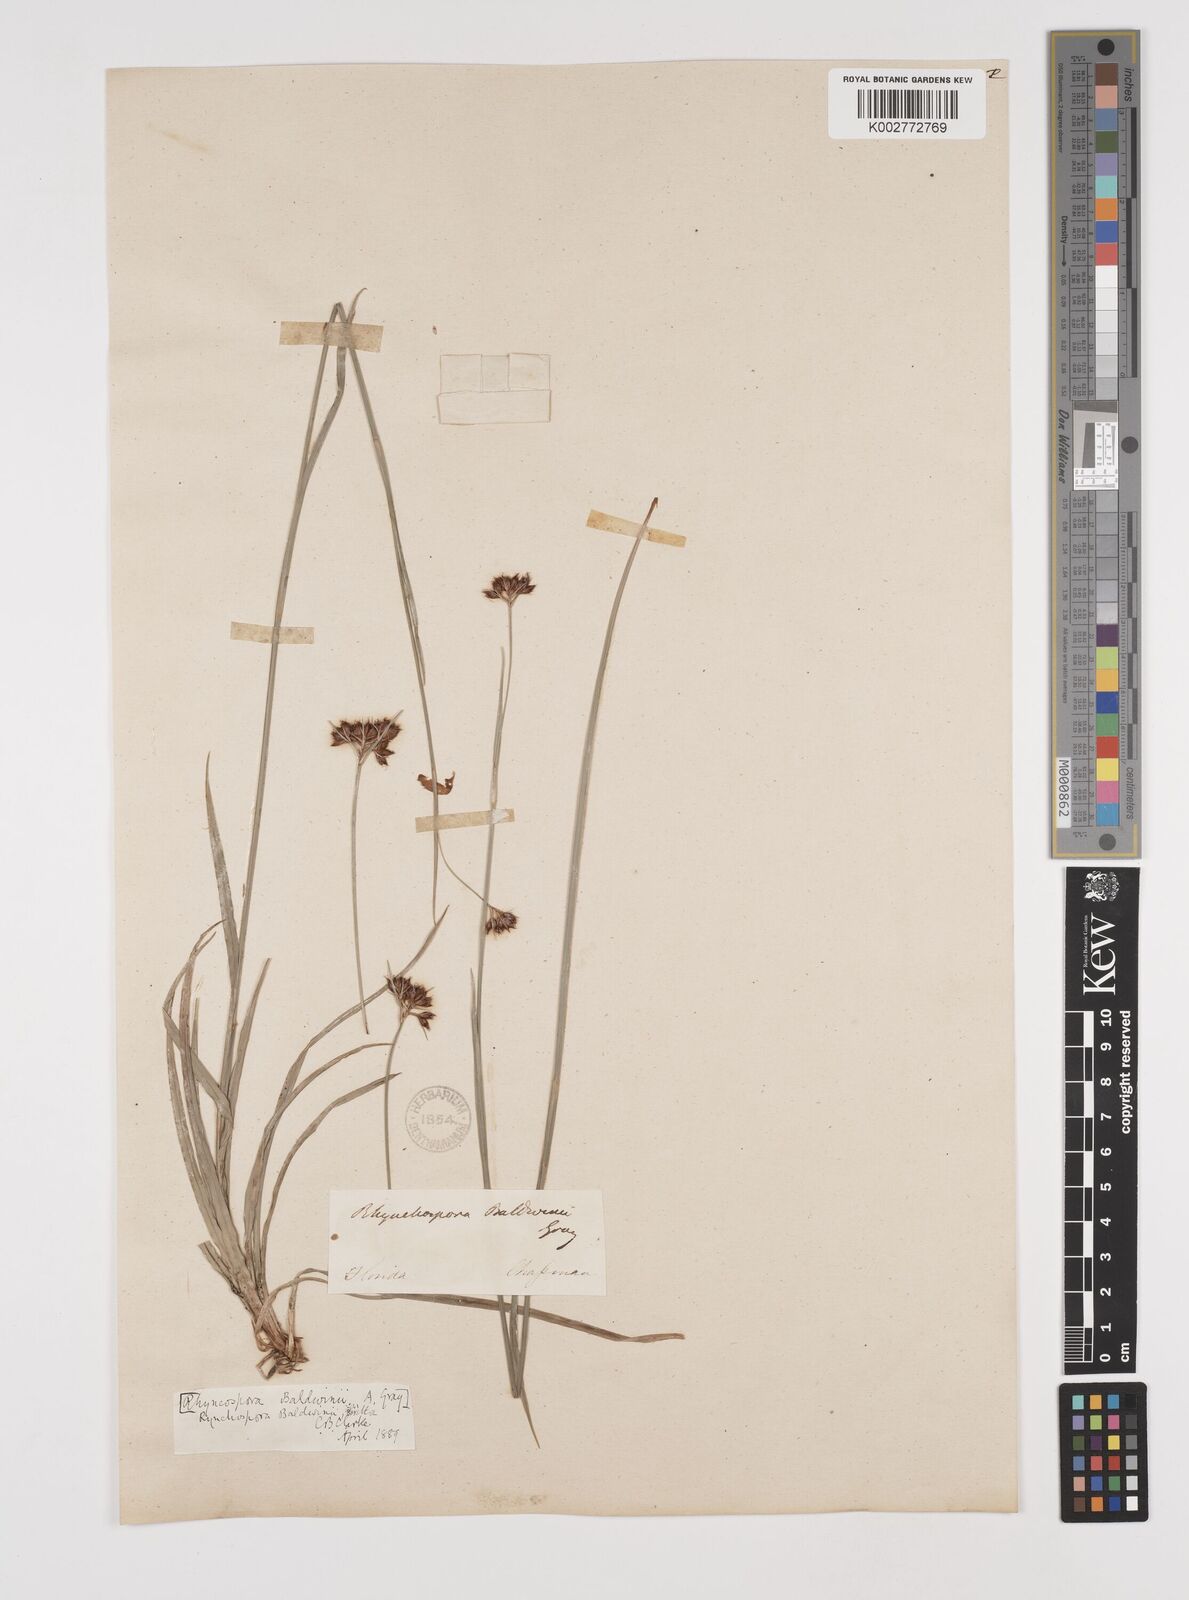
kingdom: Plantae
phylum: Tracheophyta
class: Liliopsida
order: Poales
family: Cyperaceae
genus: Rhynchospora
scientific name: Rhynchospora baldwinii
